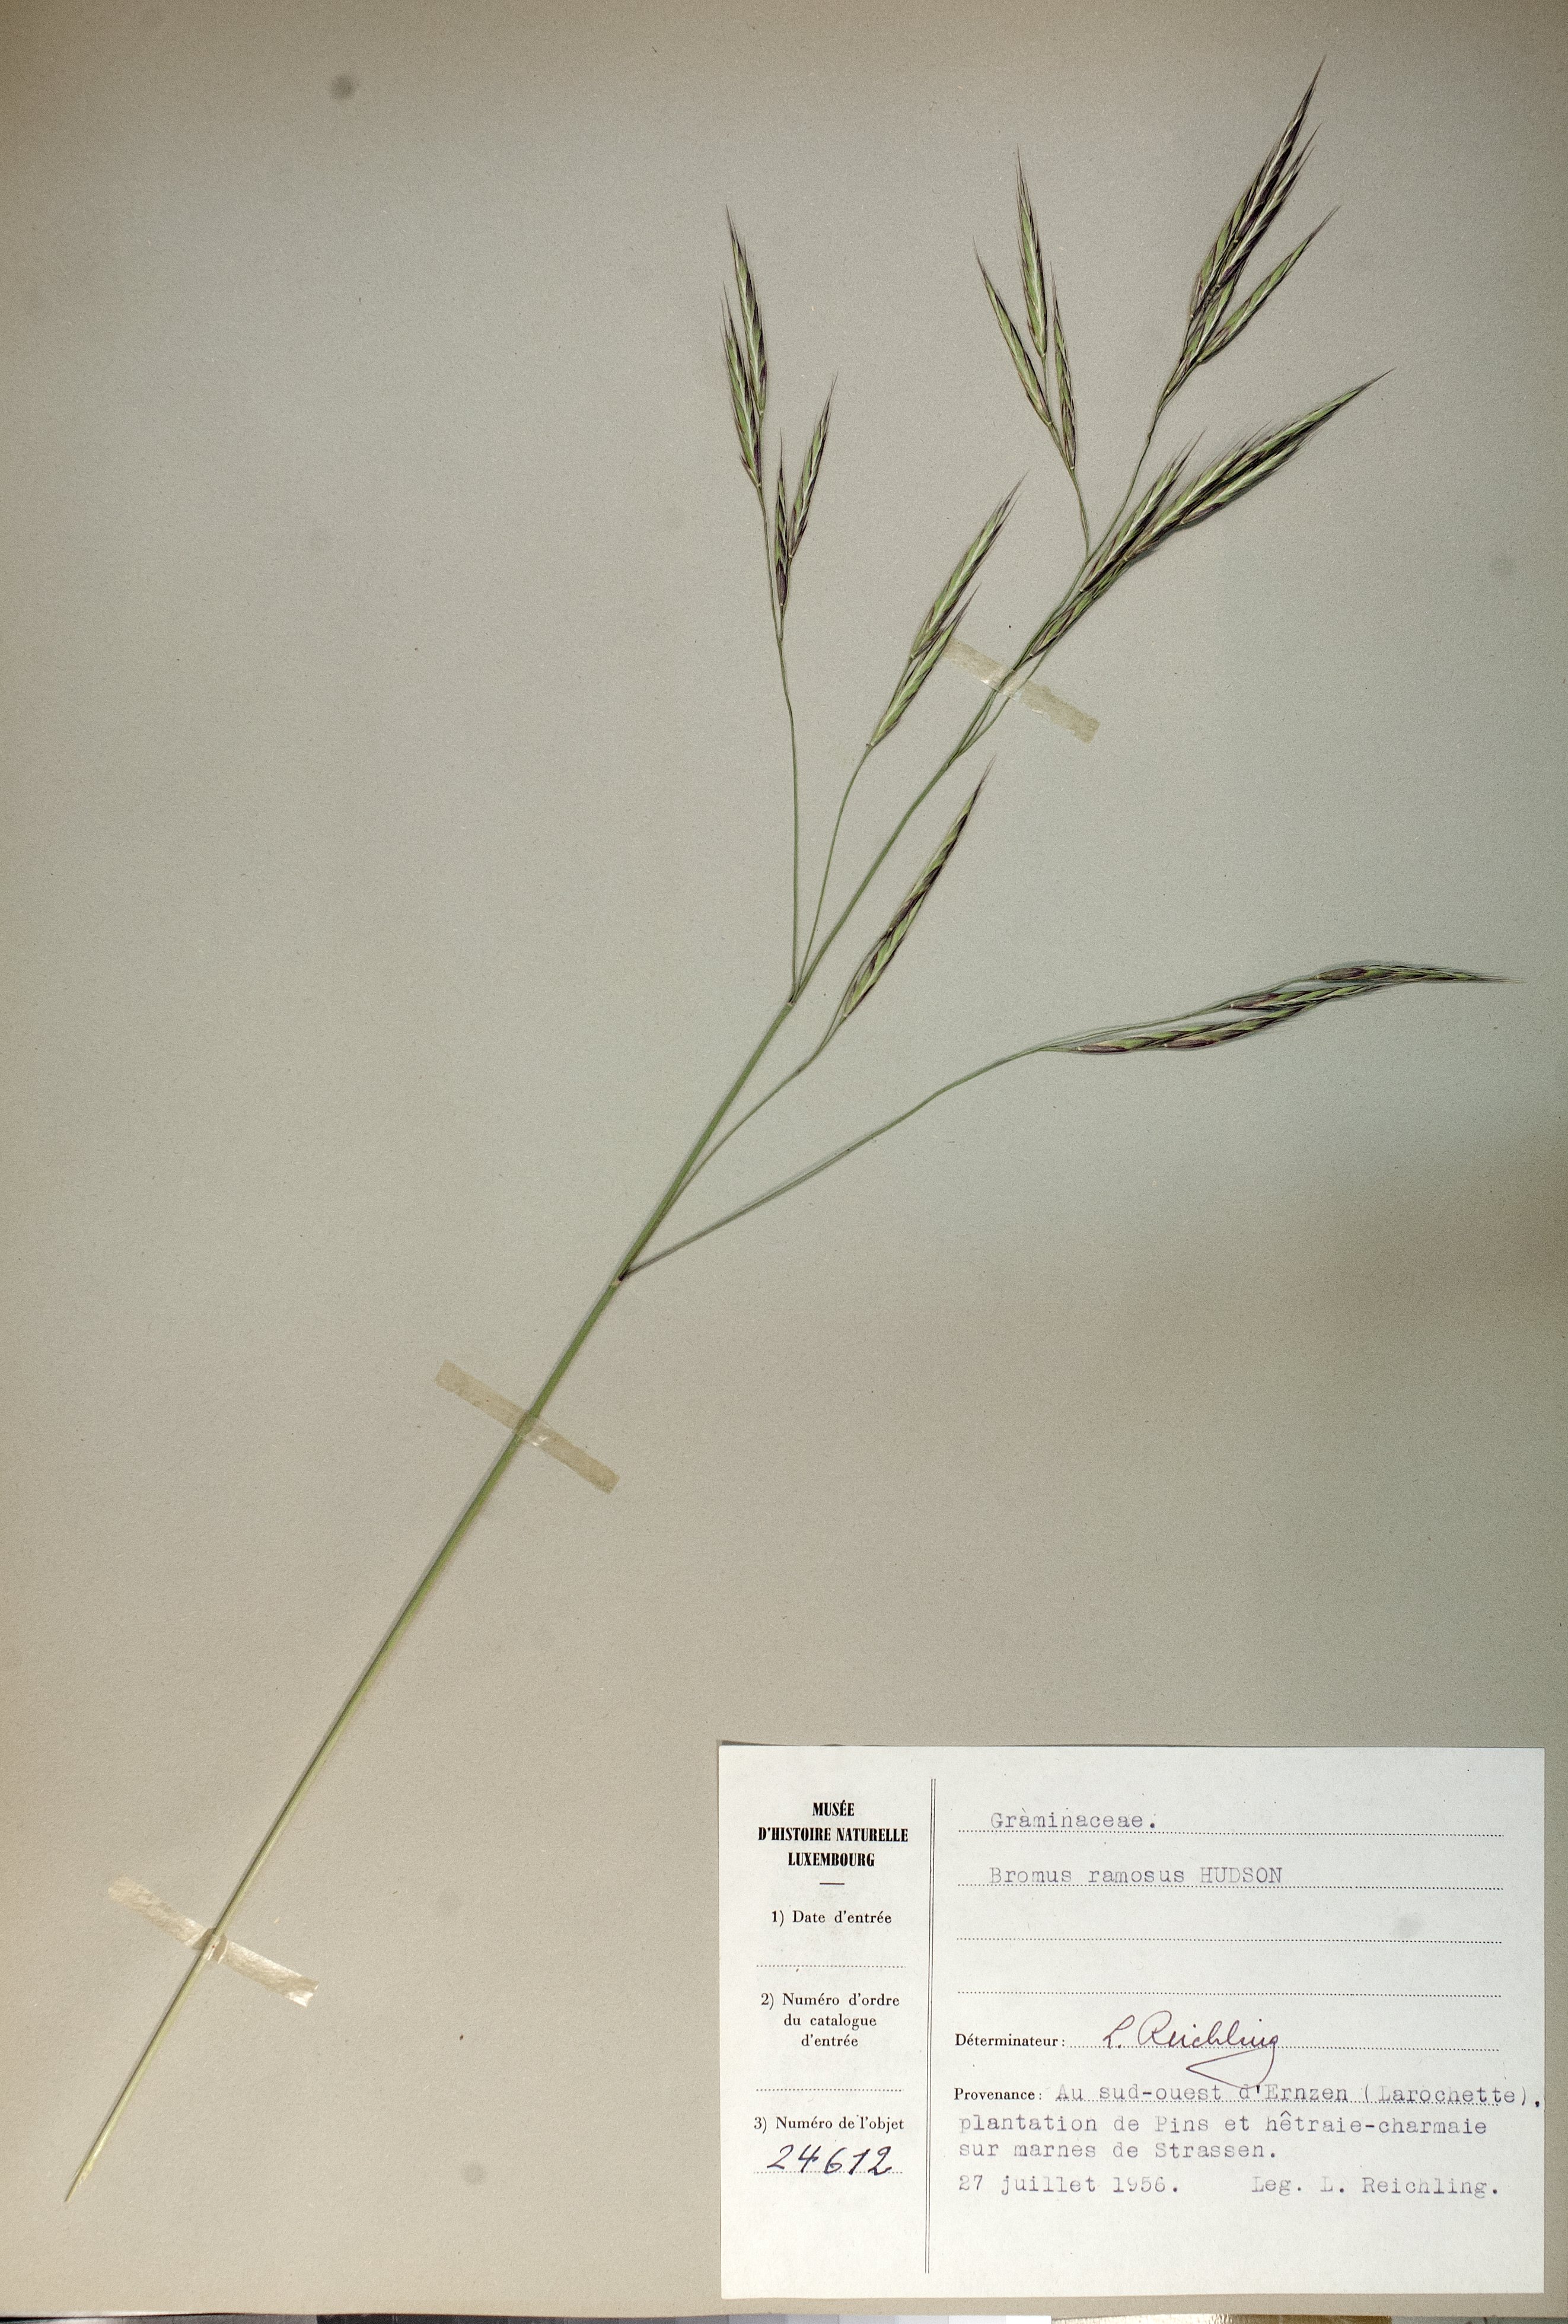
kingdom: Plantae
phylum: Tracheophyta
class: Liliopsida
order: Poales
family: Poaceae
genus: Bromus
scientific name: Bromus ramosus
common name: Hairy brome
